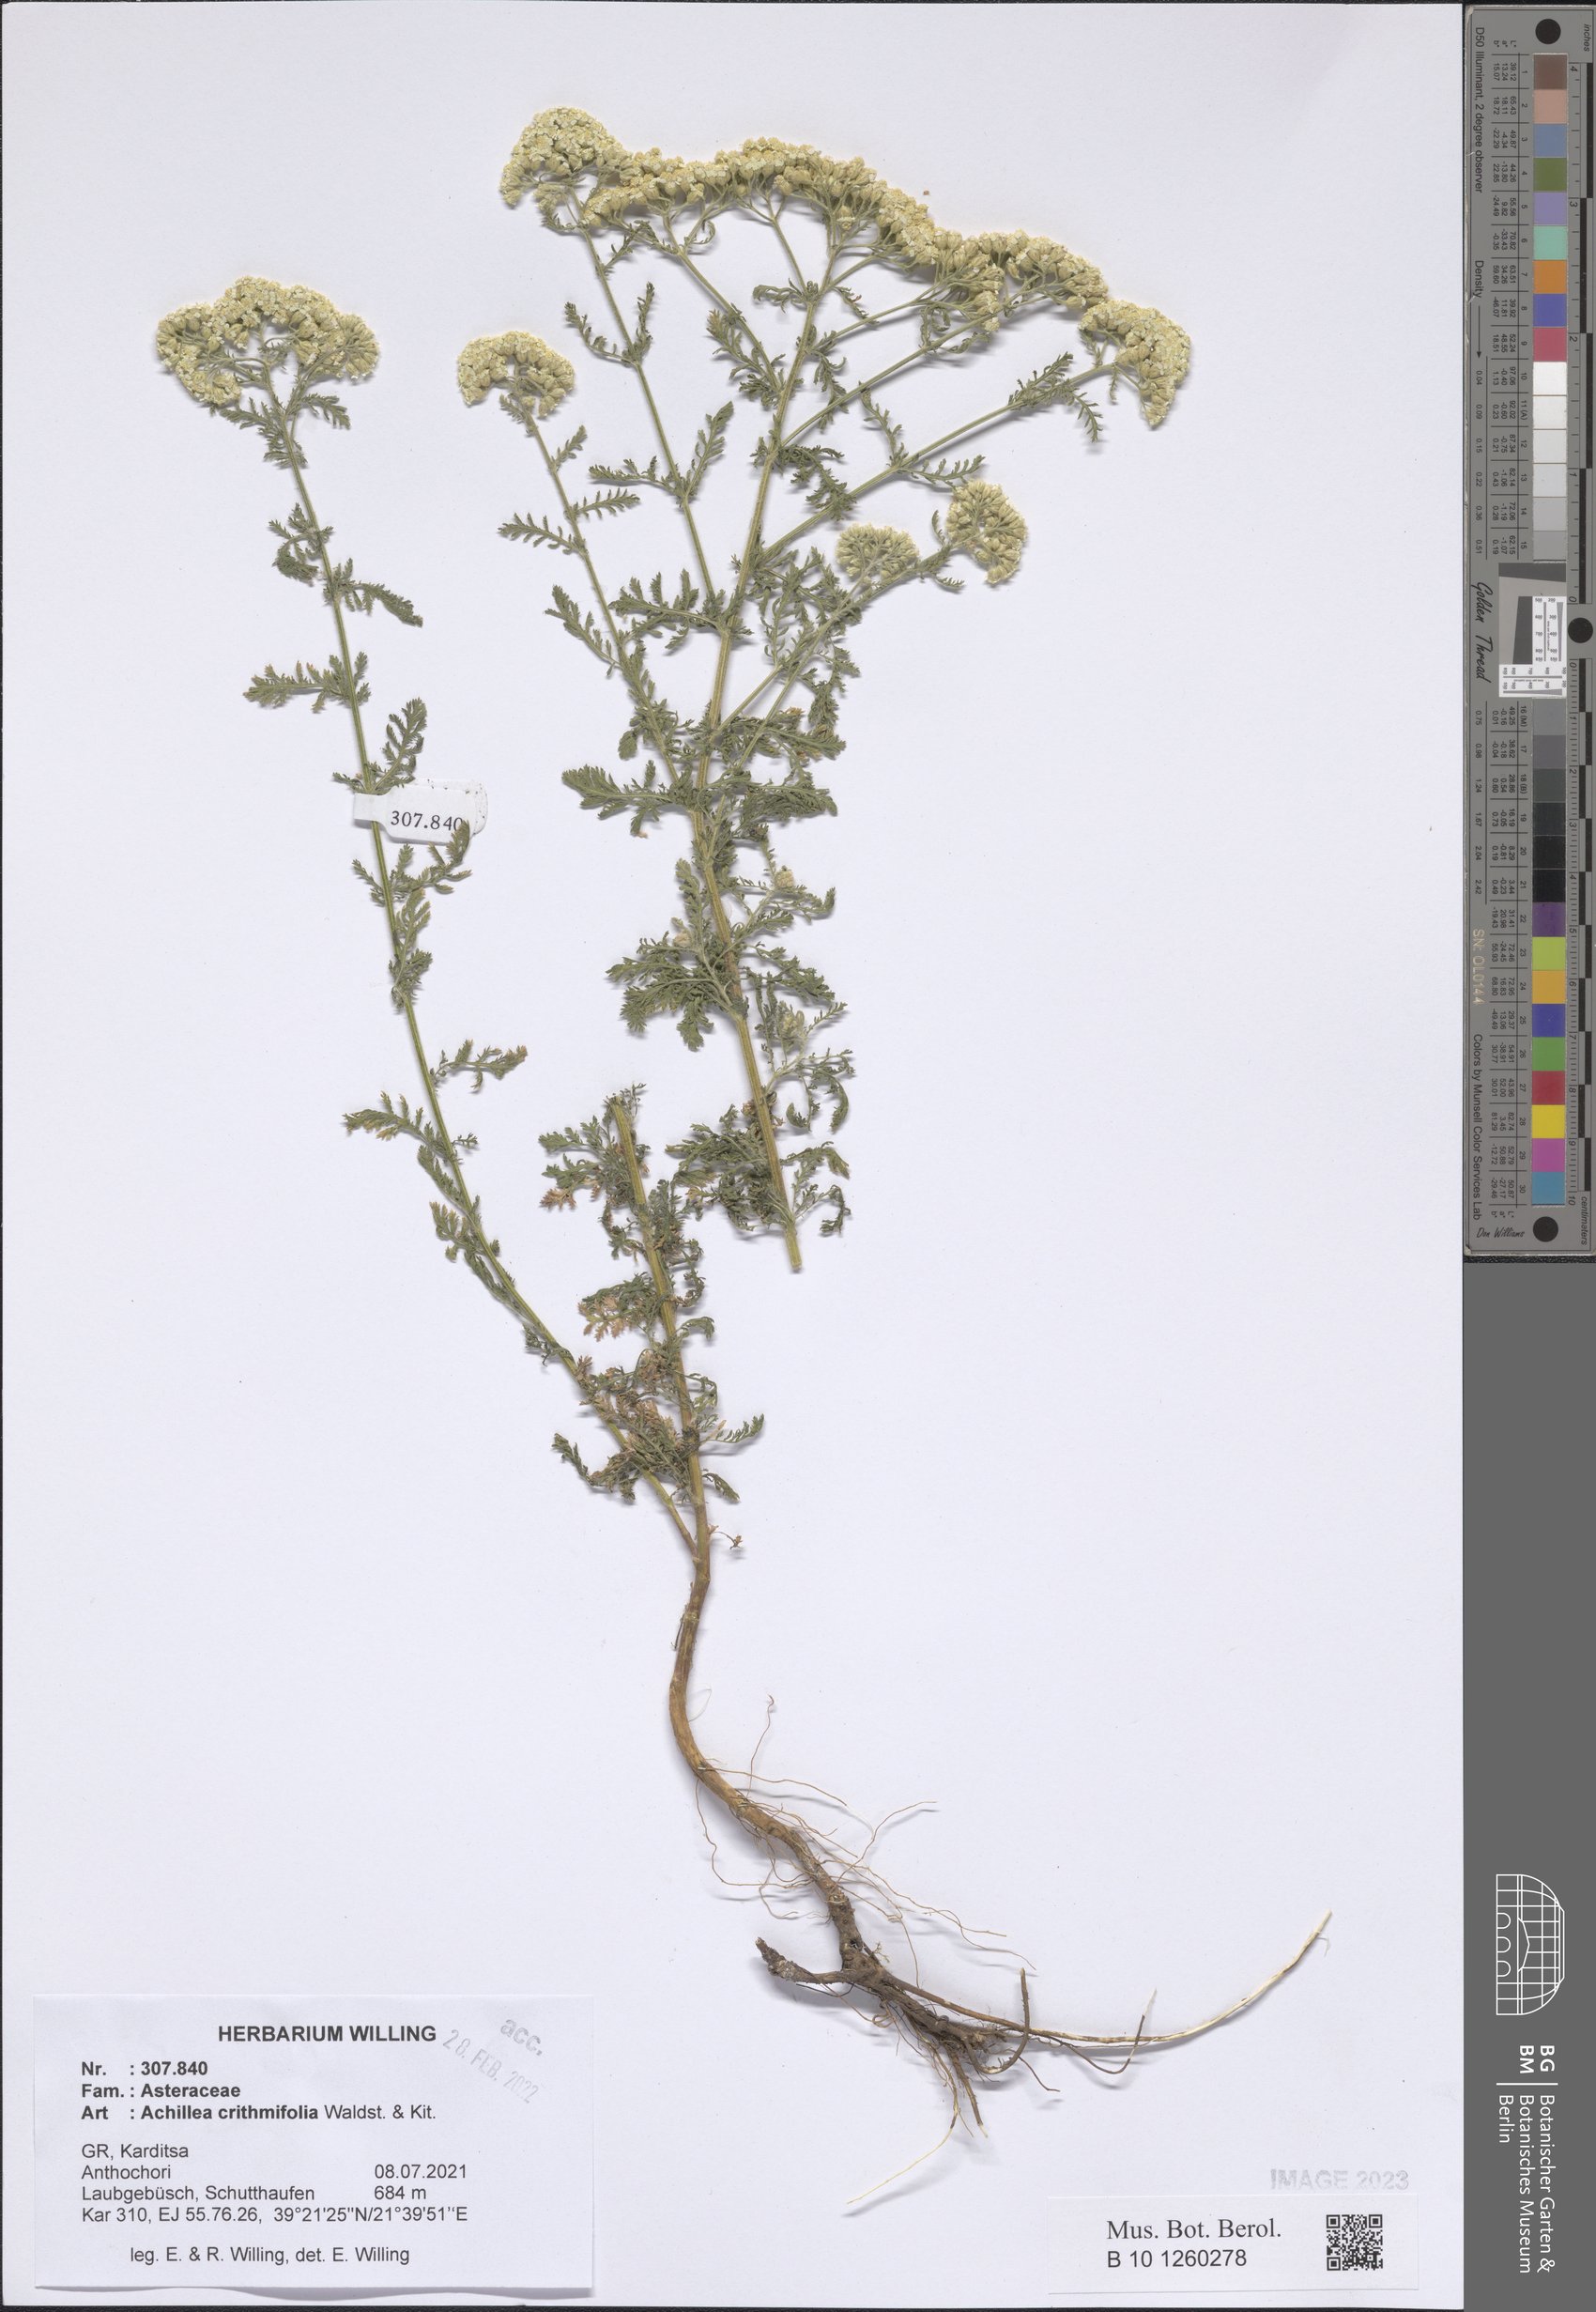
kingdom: Plantae
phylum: Tracheophyta
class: Magnoliopsida
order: Asterales
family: Asteraceae
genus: Achillea
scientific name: Achillea crithmifolia
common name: Yarrow
